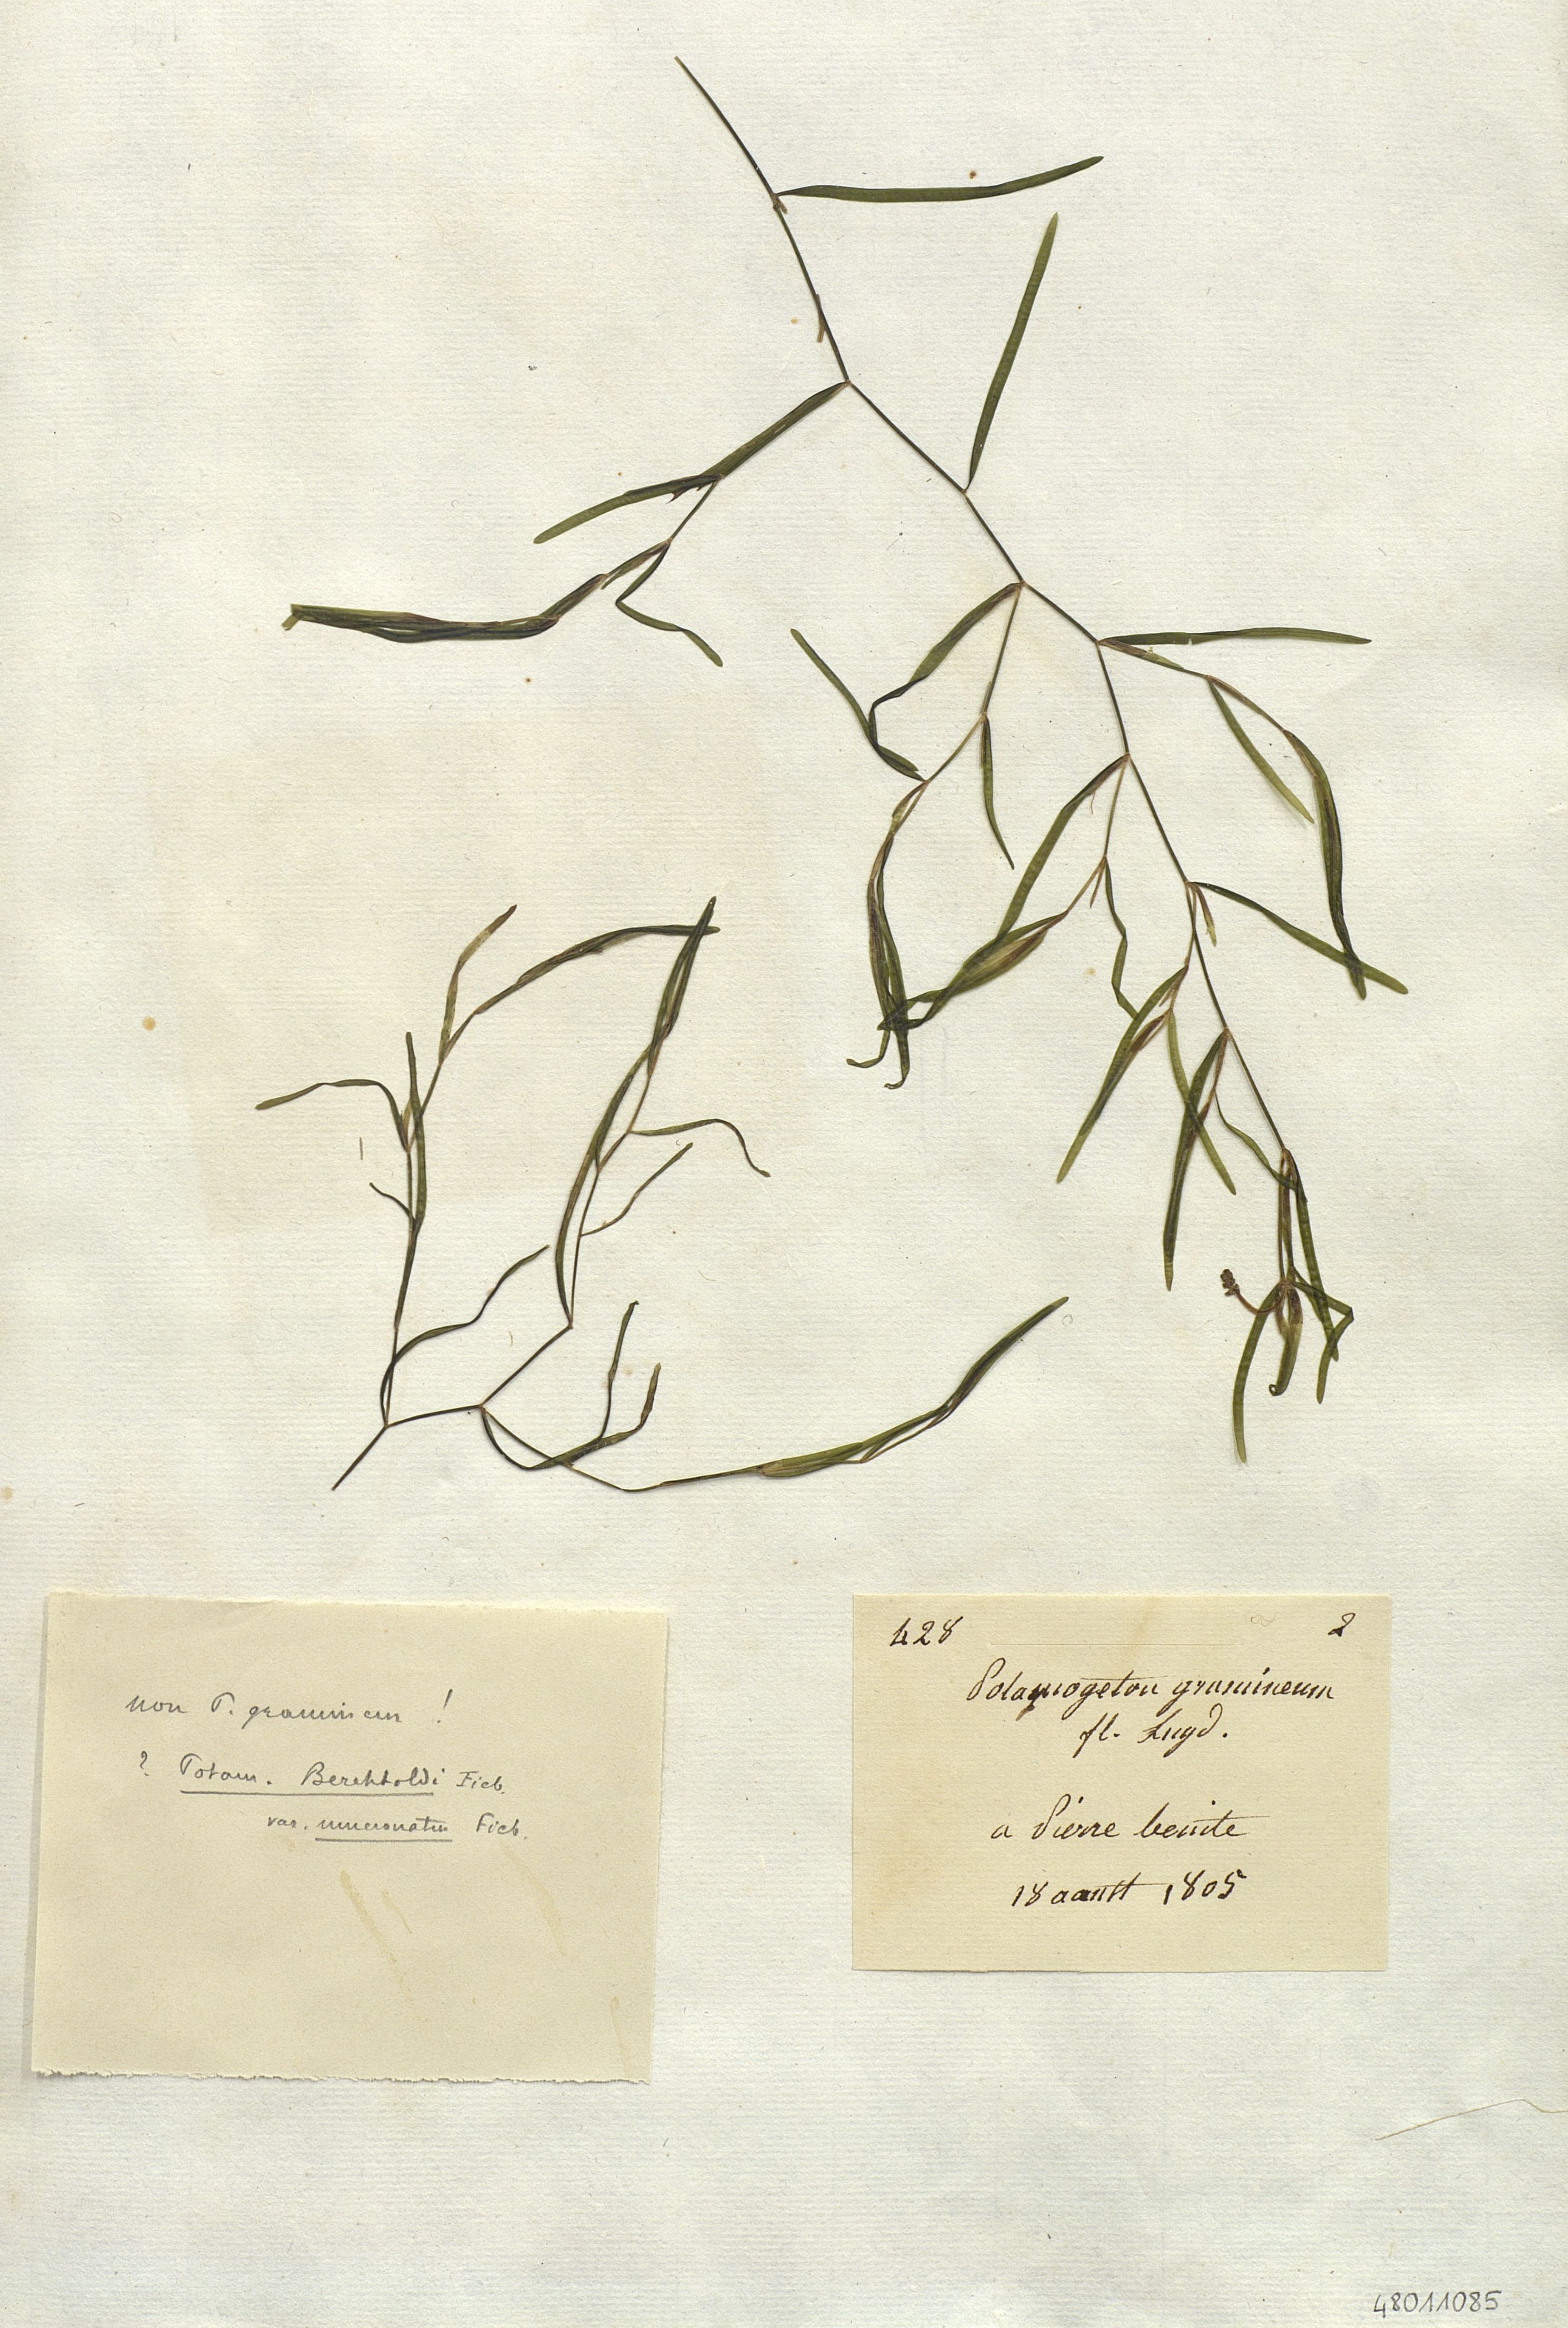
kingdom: Plantae
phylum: Tracheophyta
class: Liliopsida
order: Alismatales
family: Potamogetonaceae
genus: Potamogeton
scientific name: Potamogeton gramineus
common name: Various-leaved pondweed
